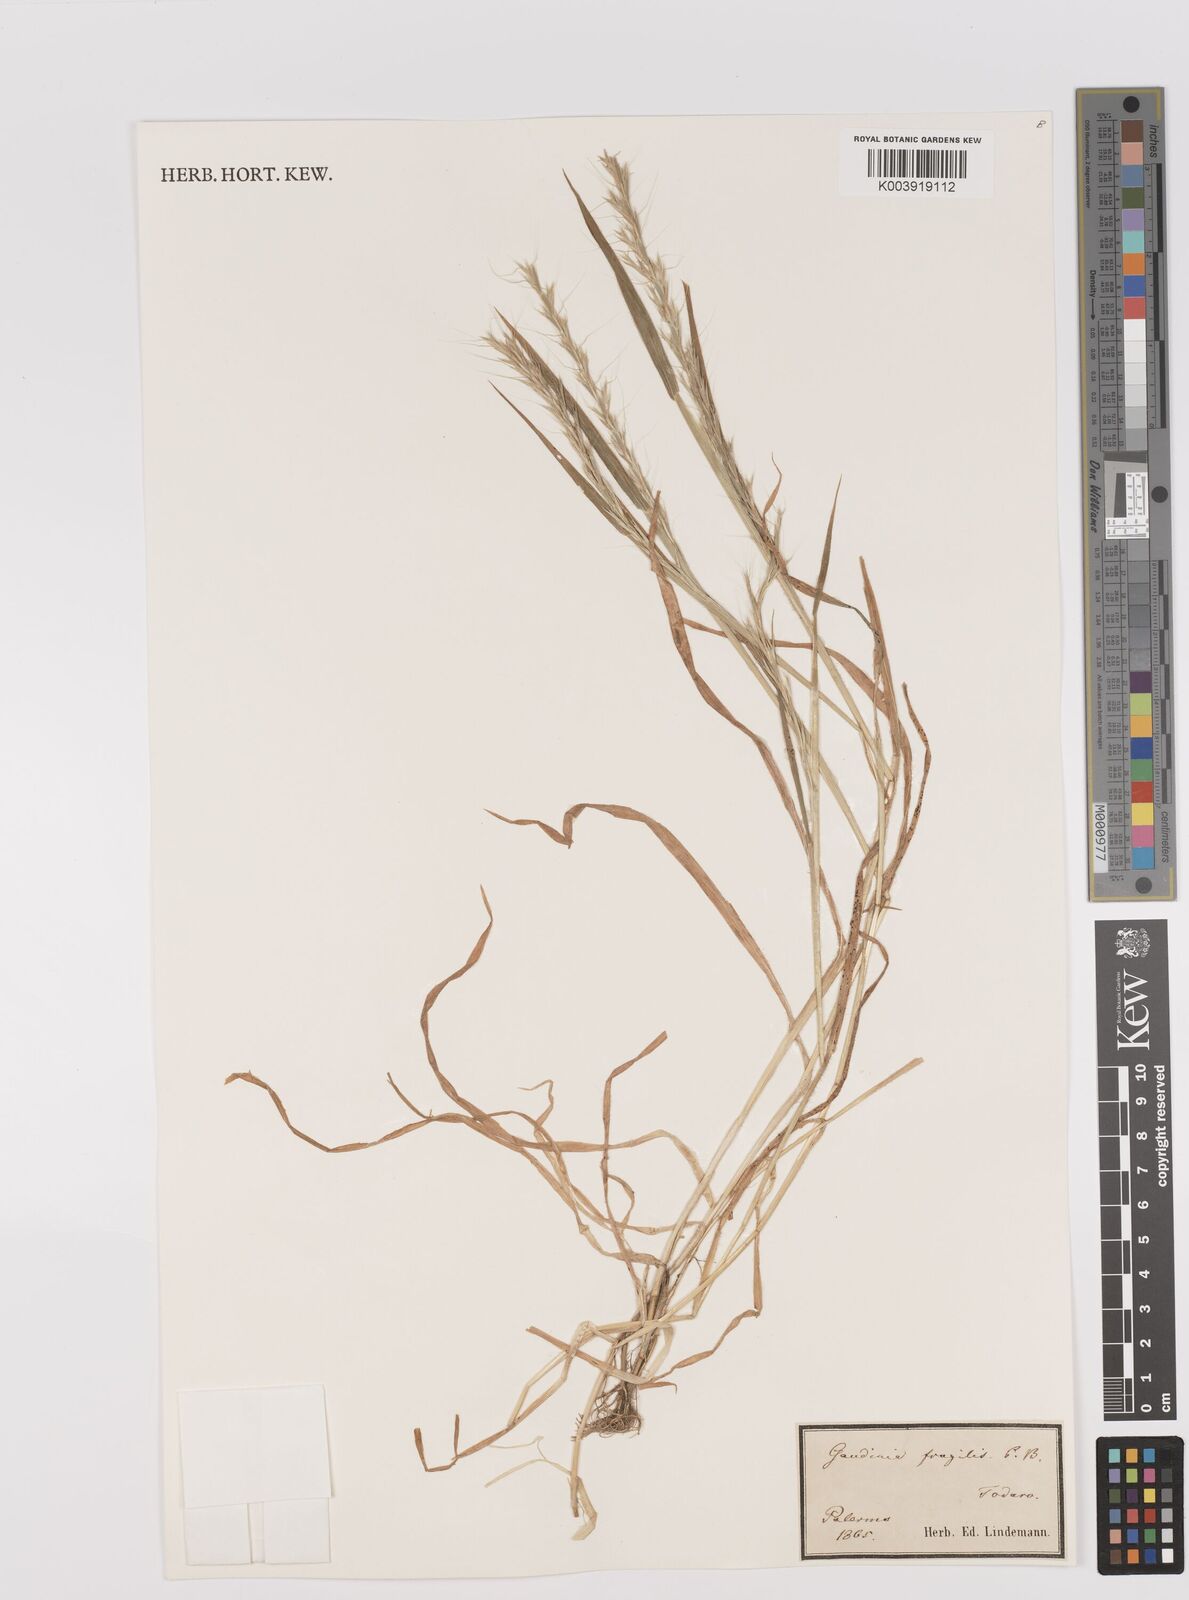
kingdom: Plantae
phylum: Tracheophyta
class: Liliopsida
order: Poales
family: Poaceae
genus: Gaudinia
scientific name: Gaudinia fragilis
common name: French oat-grass
